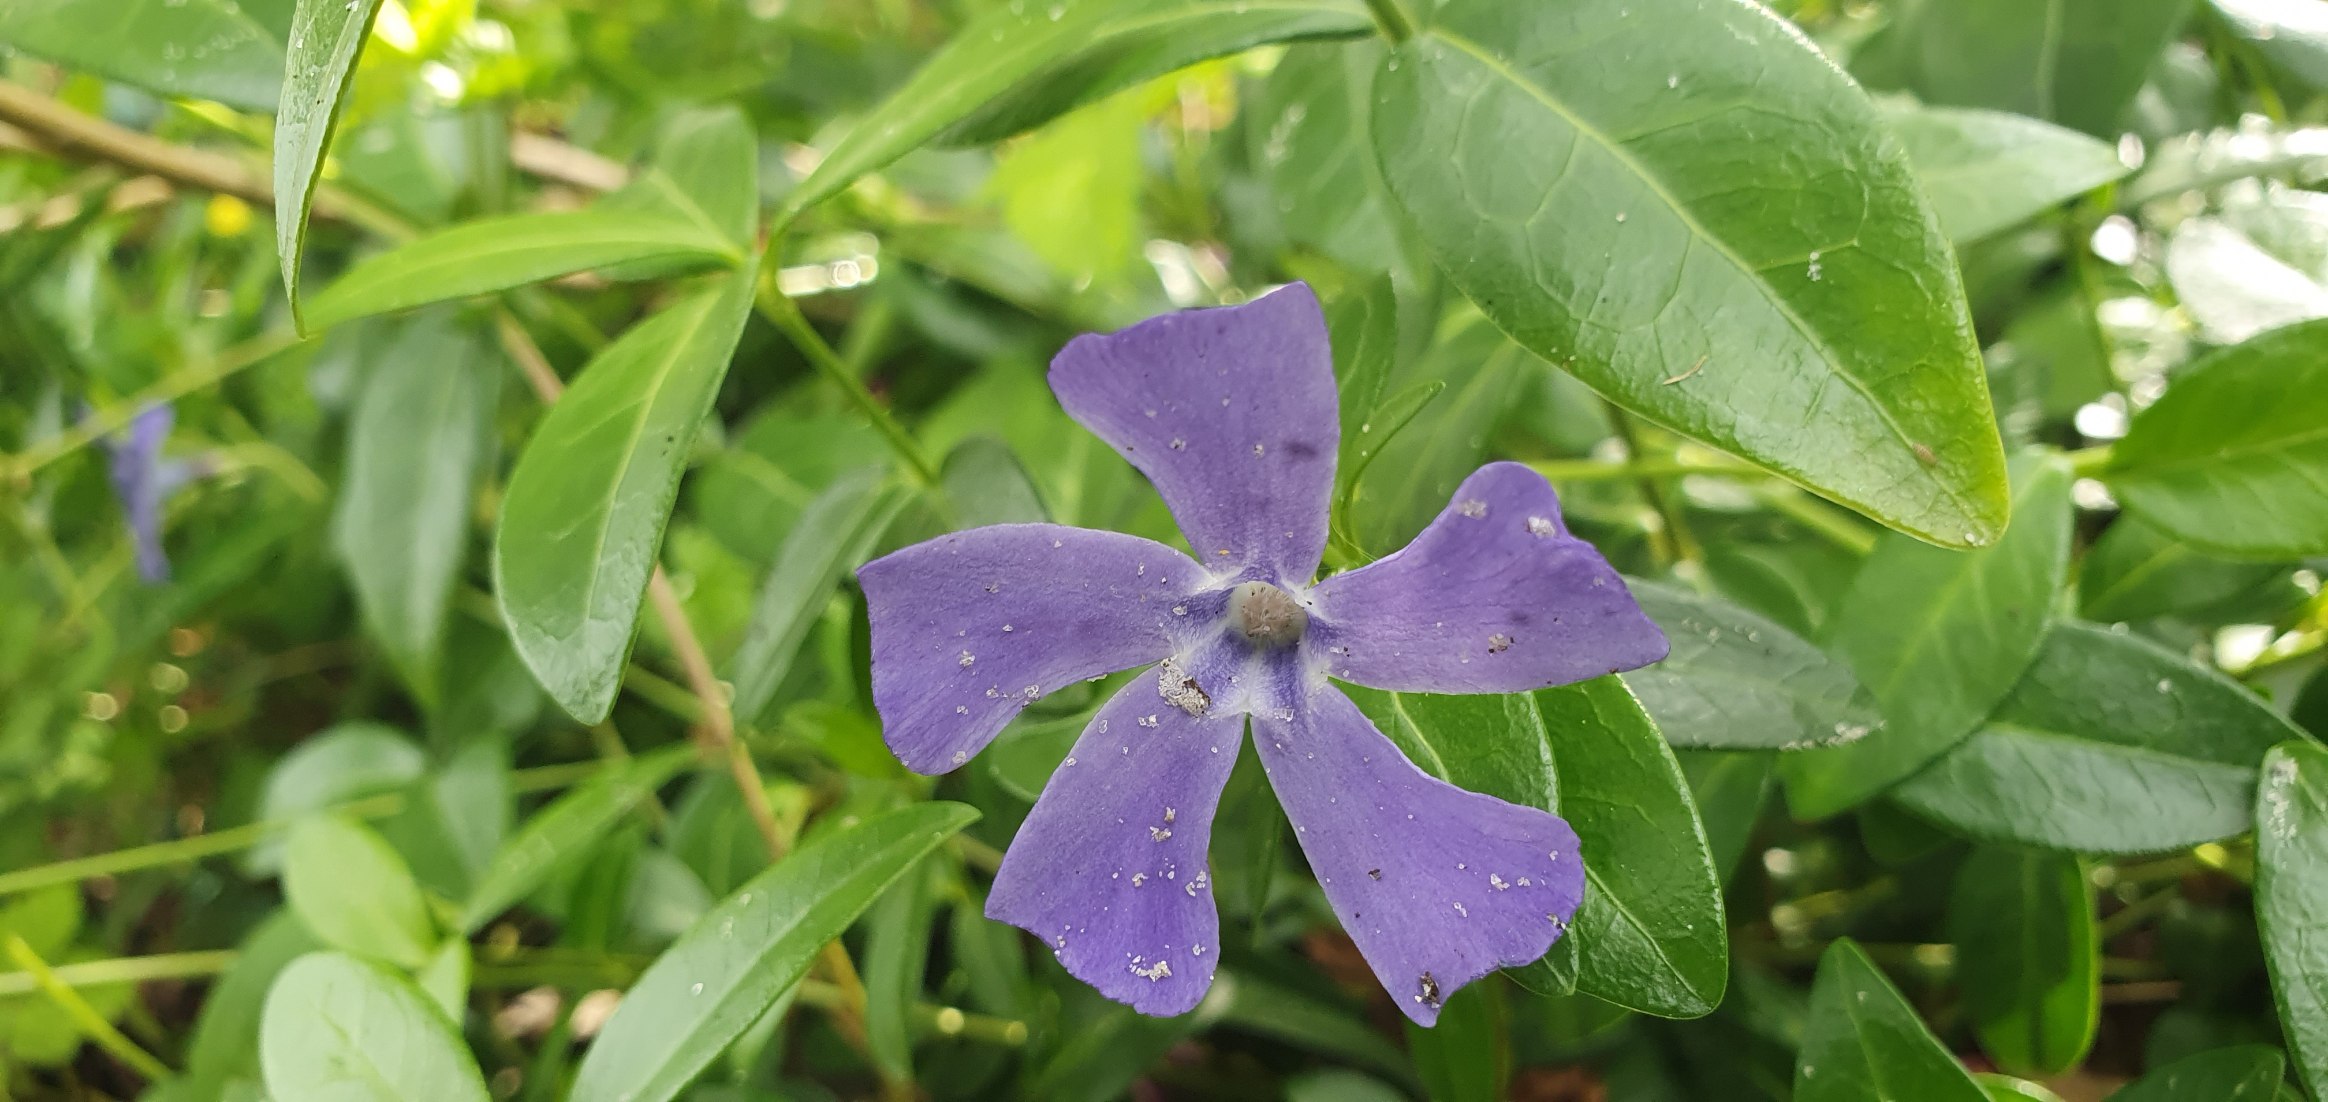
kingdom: Plantae
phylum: Tracheophyta
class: Magnoliopsida
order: Gentianales
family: Apocynaceae
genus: Vinca
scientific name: Vinca minor
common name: Liden singrøn
